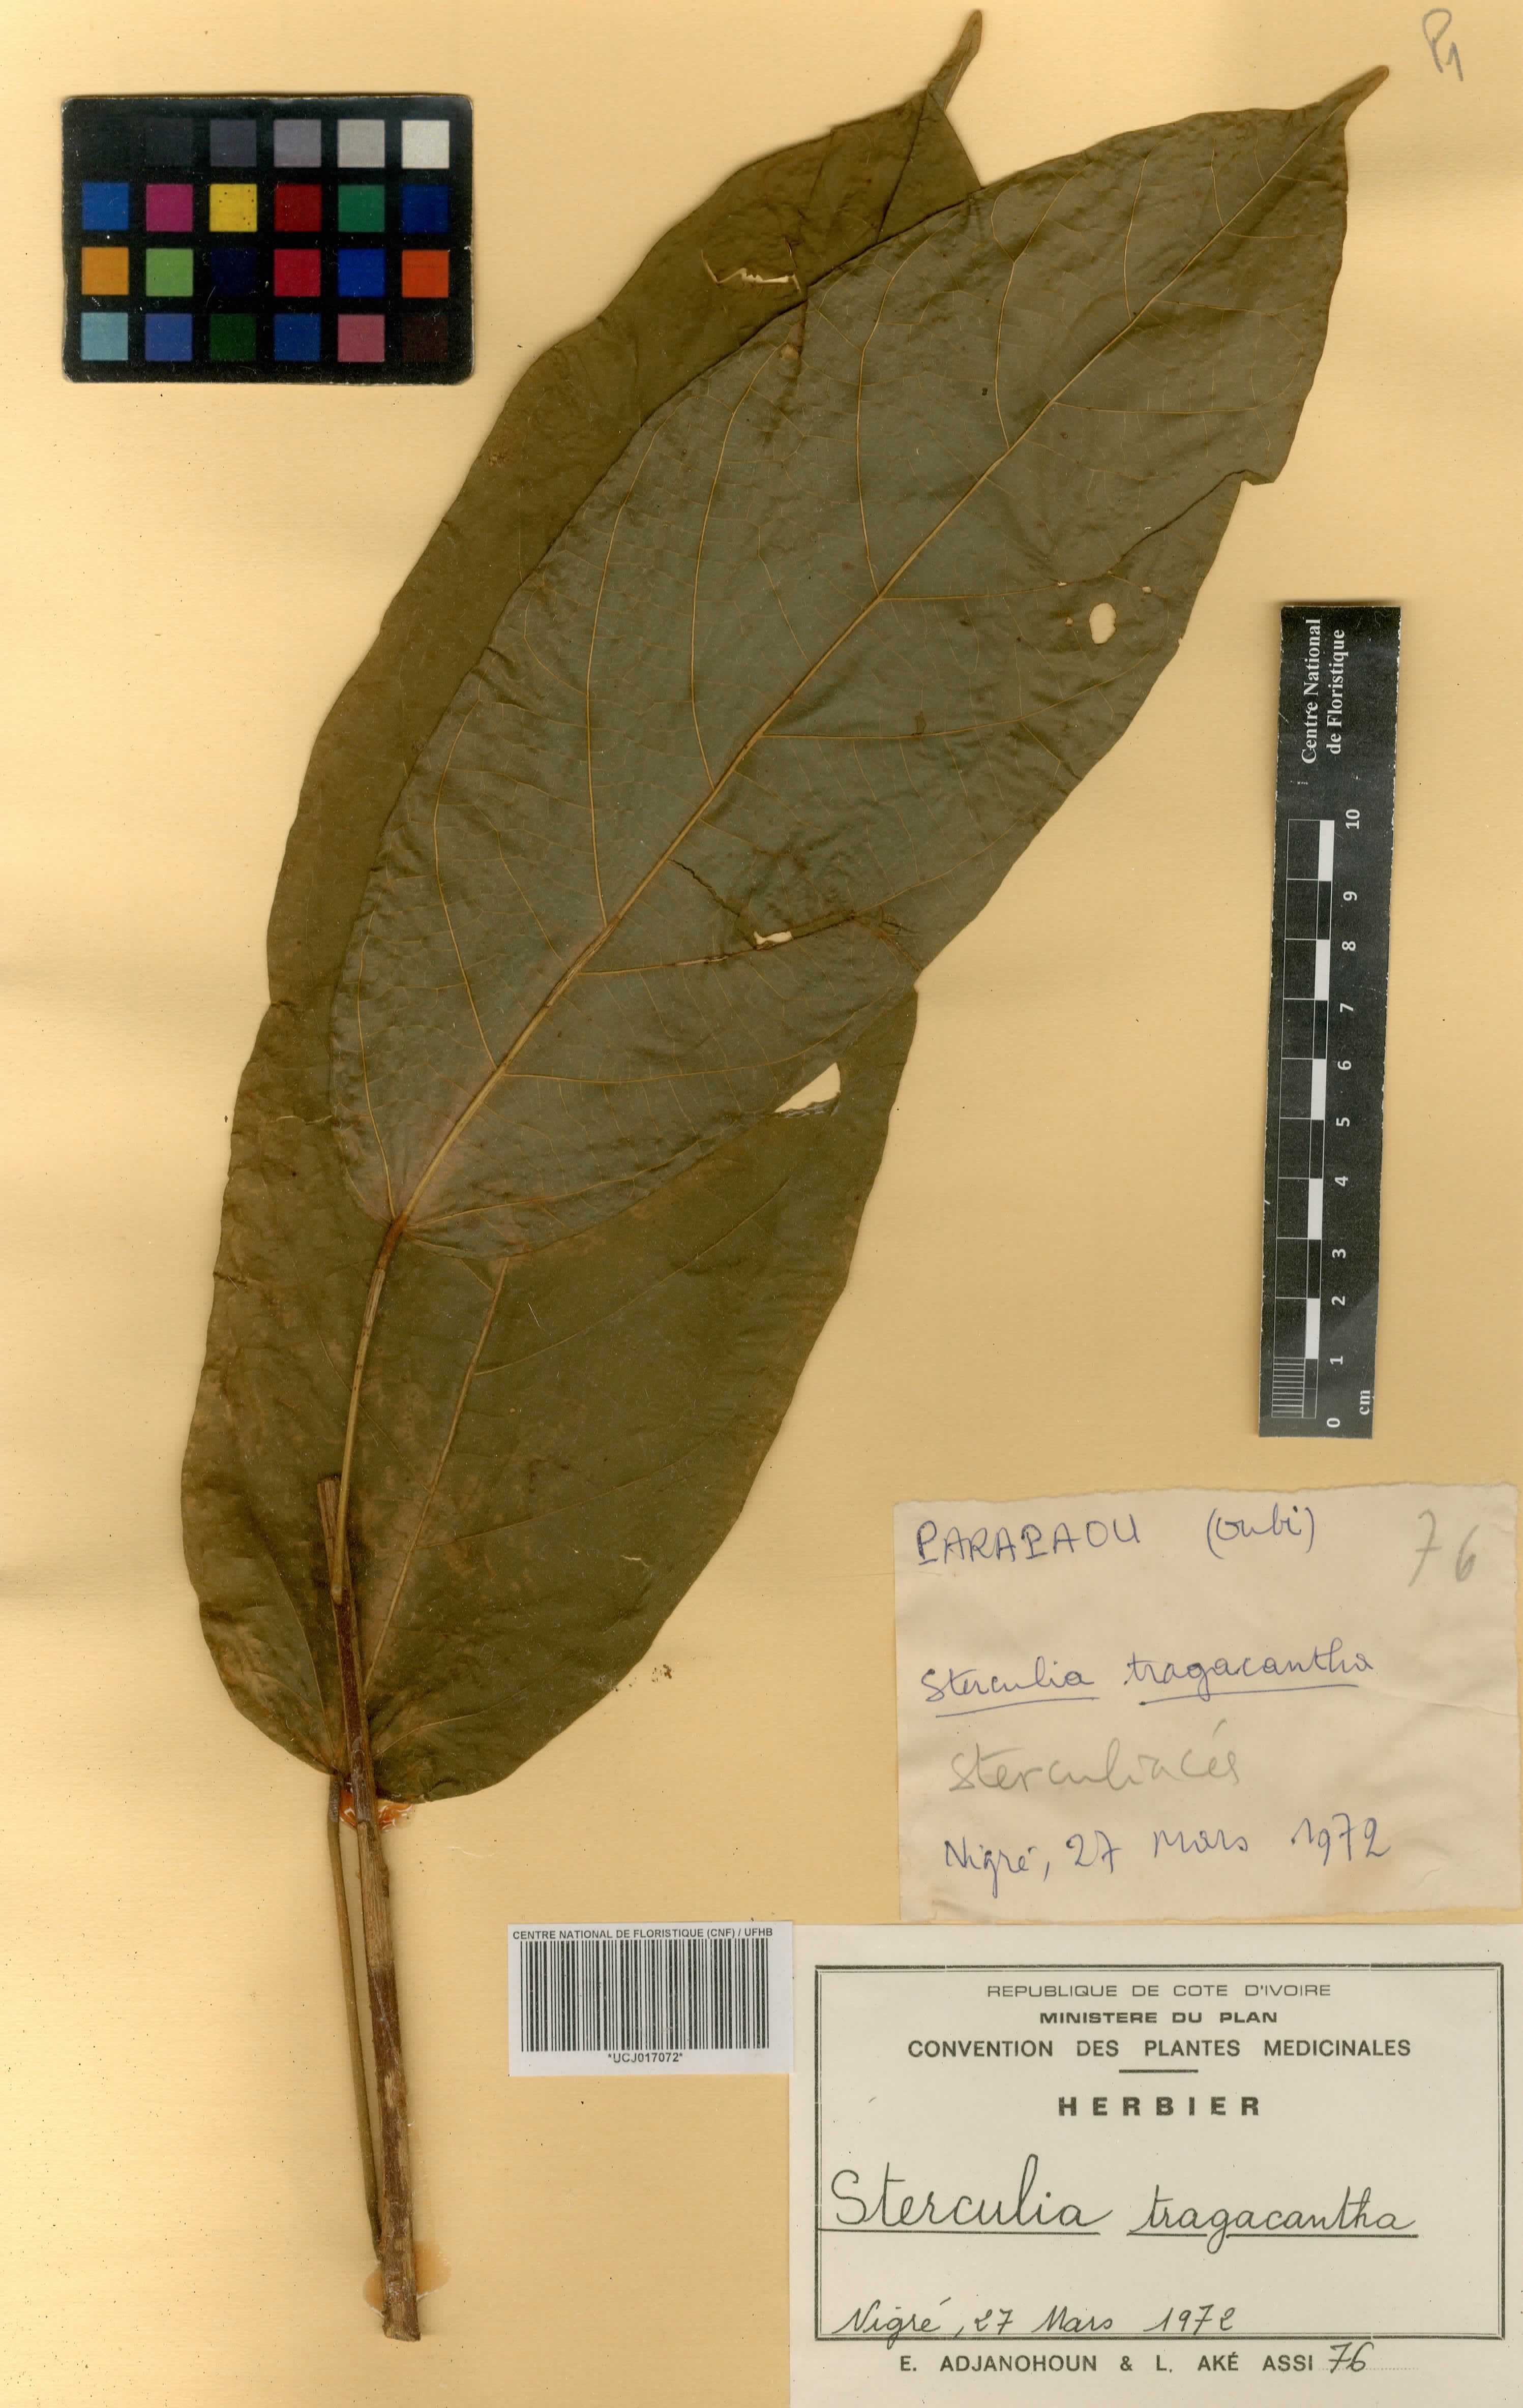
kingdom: Plantae
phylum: Tracheophyta
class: Magnoliopsida
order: Malvales
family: Malvaceae
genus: Sterculia
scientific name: Sterculia tragacantha
